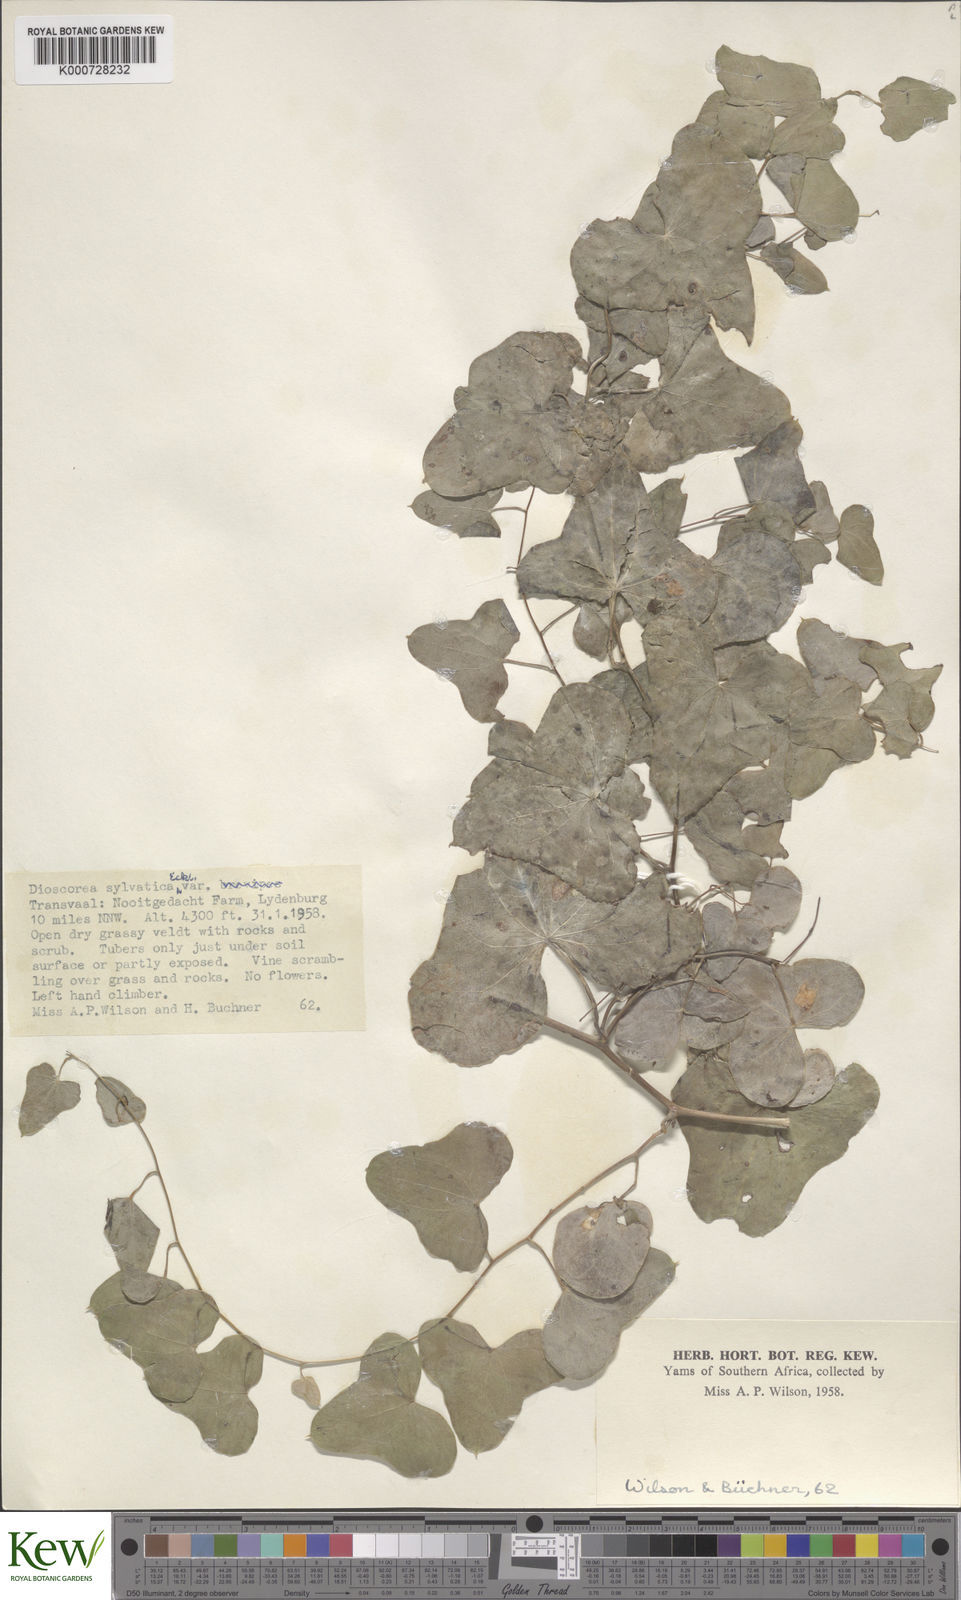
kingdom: Plantae
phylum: Tracheophyta
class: Liliopsida
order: Dioscoreales
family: Dioscoreaceae
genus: Dioscorea
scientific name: Dioscorea sylvatica
